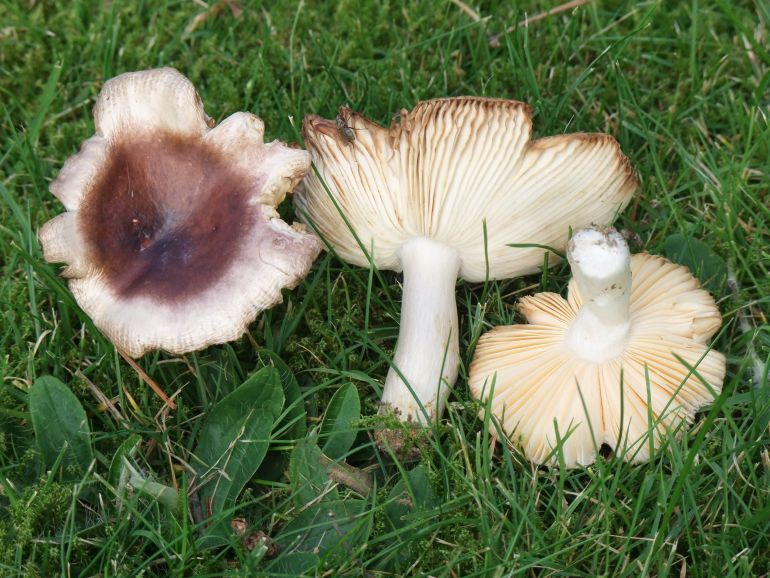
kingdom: Fungi
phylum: Basidiomycota
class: Agaricomycetes
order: Russulales
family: Russulaceae
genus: Russula
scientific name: Russula cessans
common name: fyrre-skørhat
